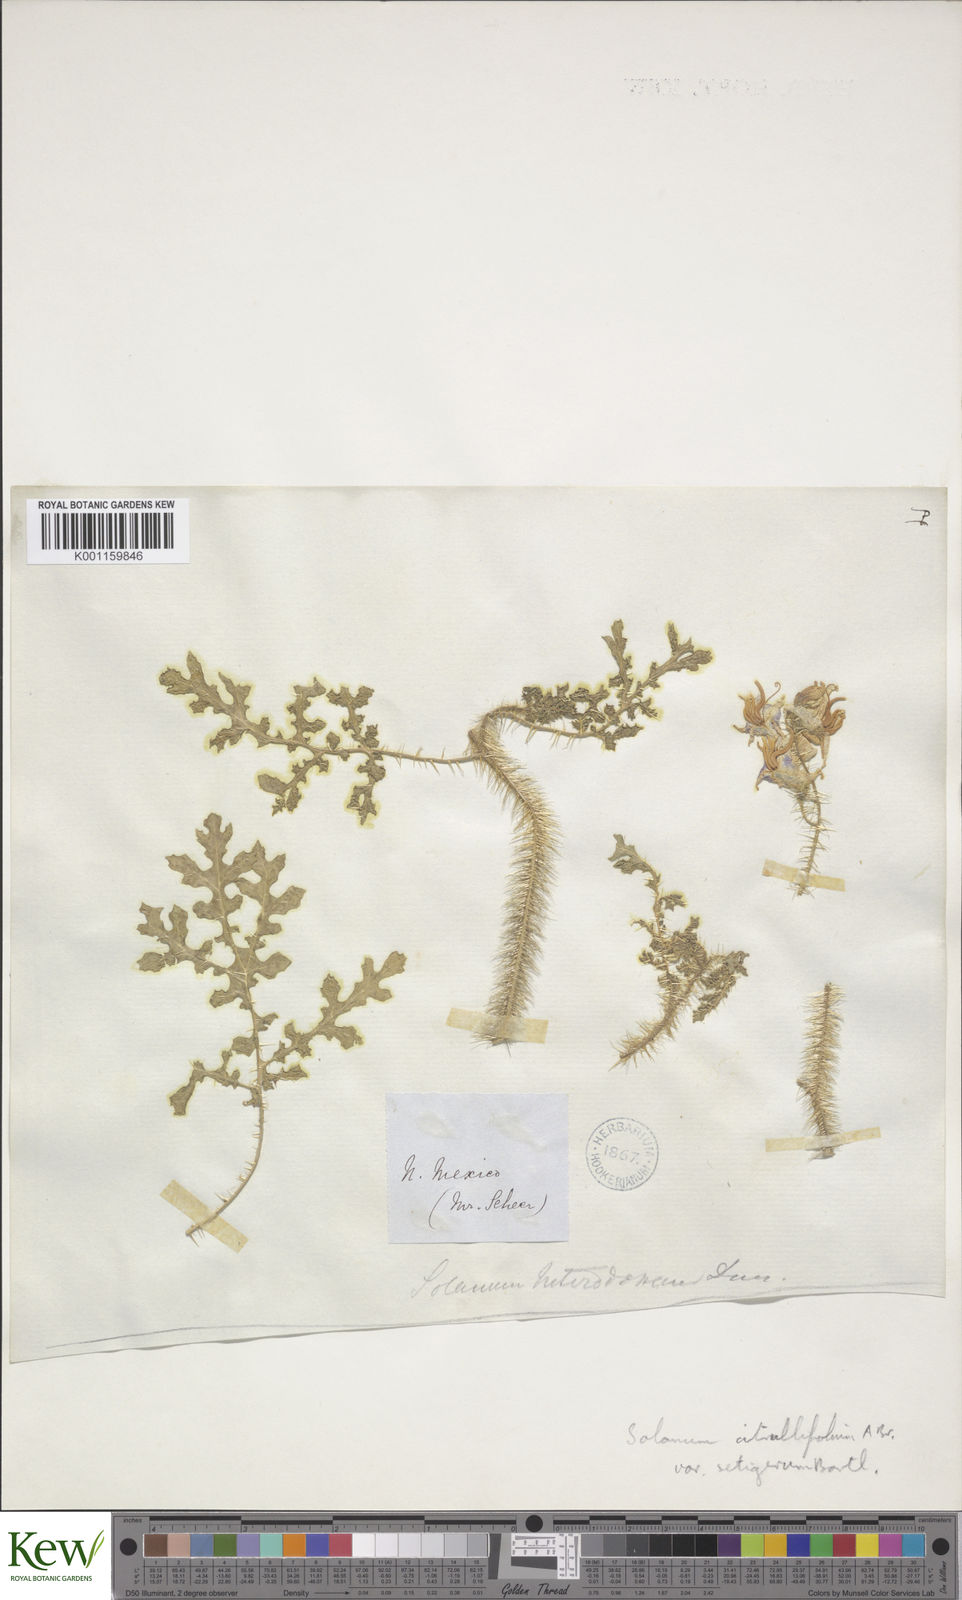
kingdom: Plantae
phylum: Tracheophyta
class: Magnoliopsida
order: Solanales
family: Solanaceae
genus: Solanum
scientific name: Solanum
